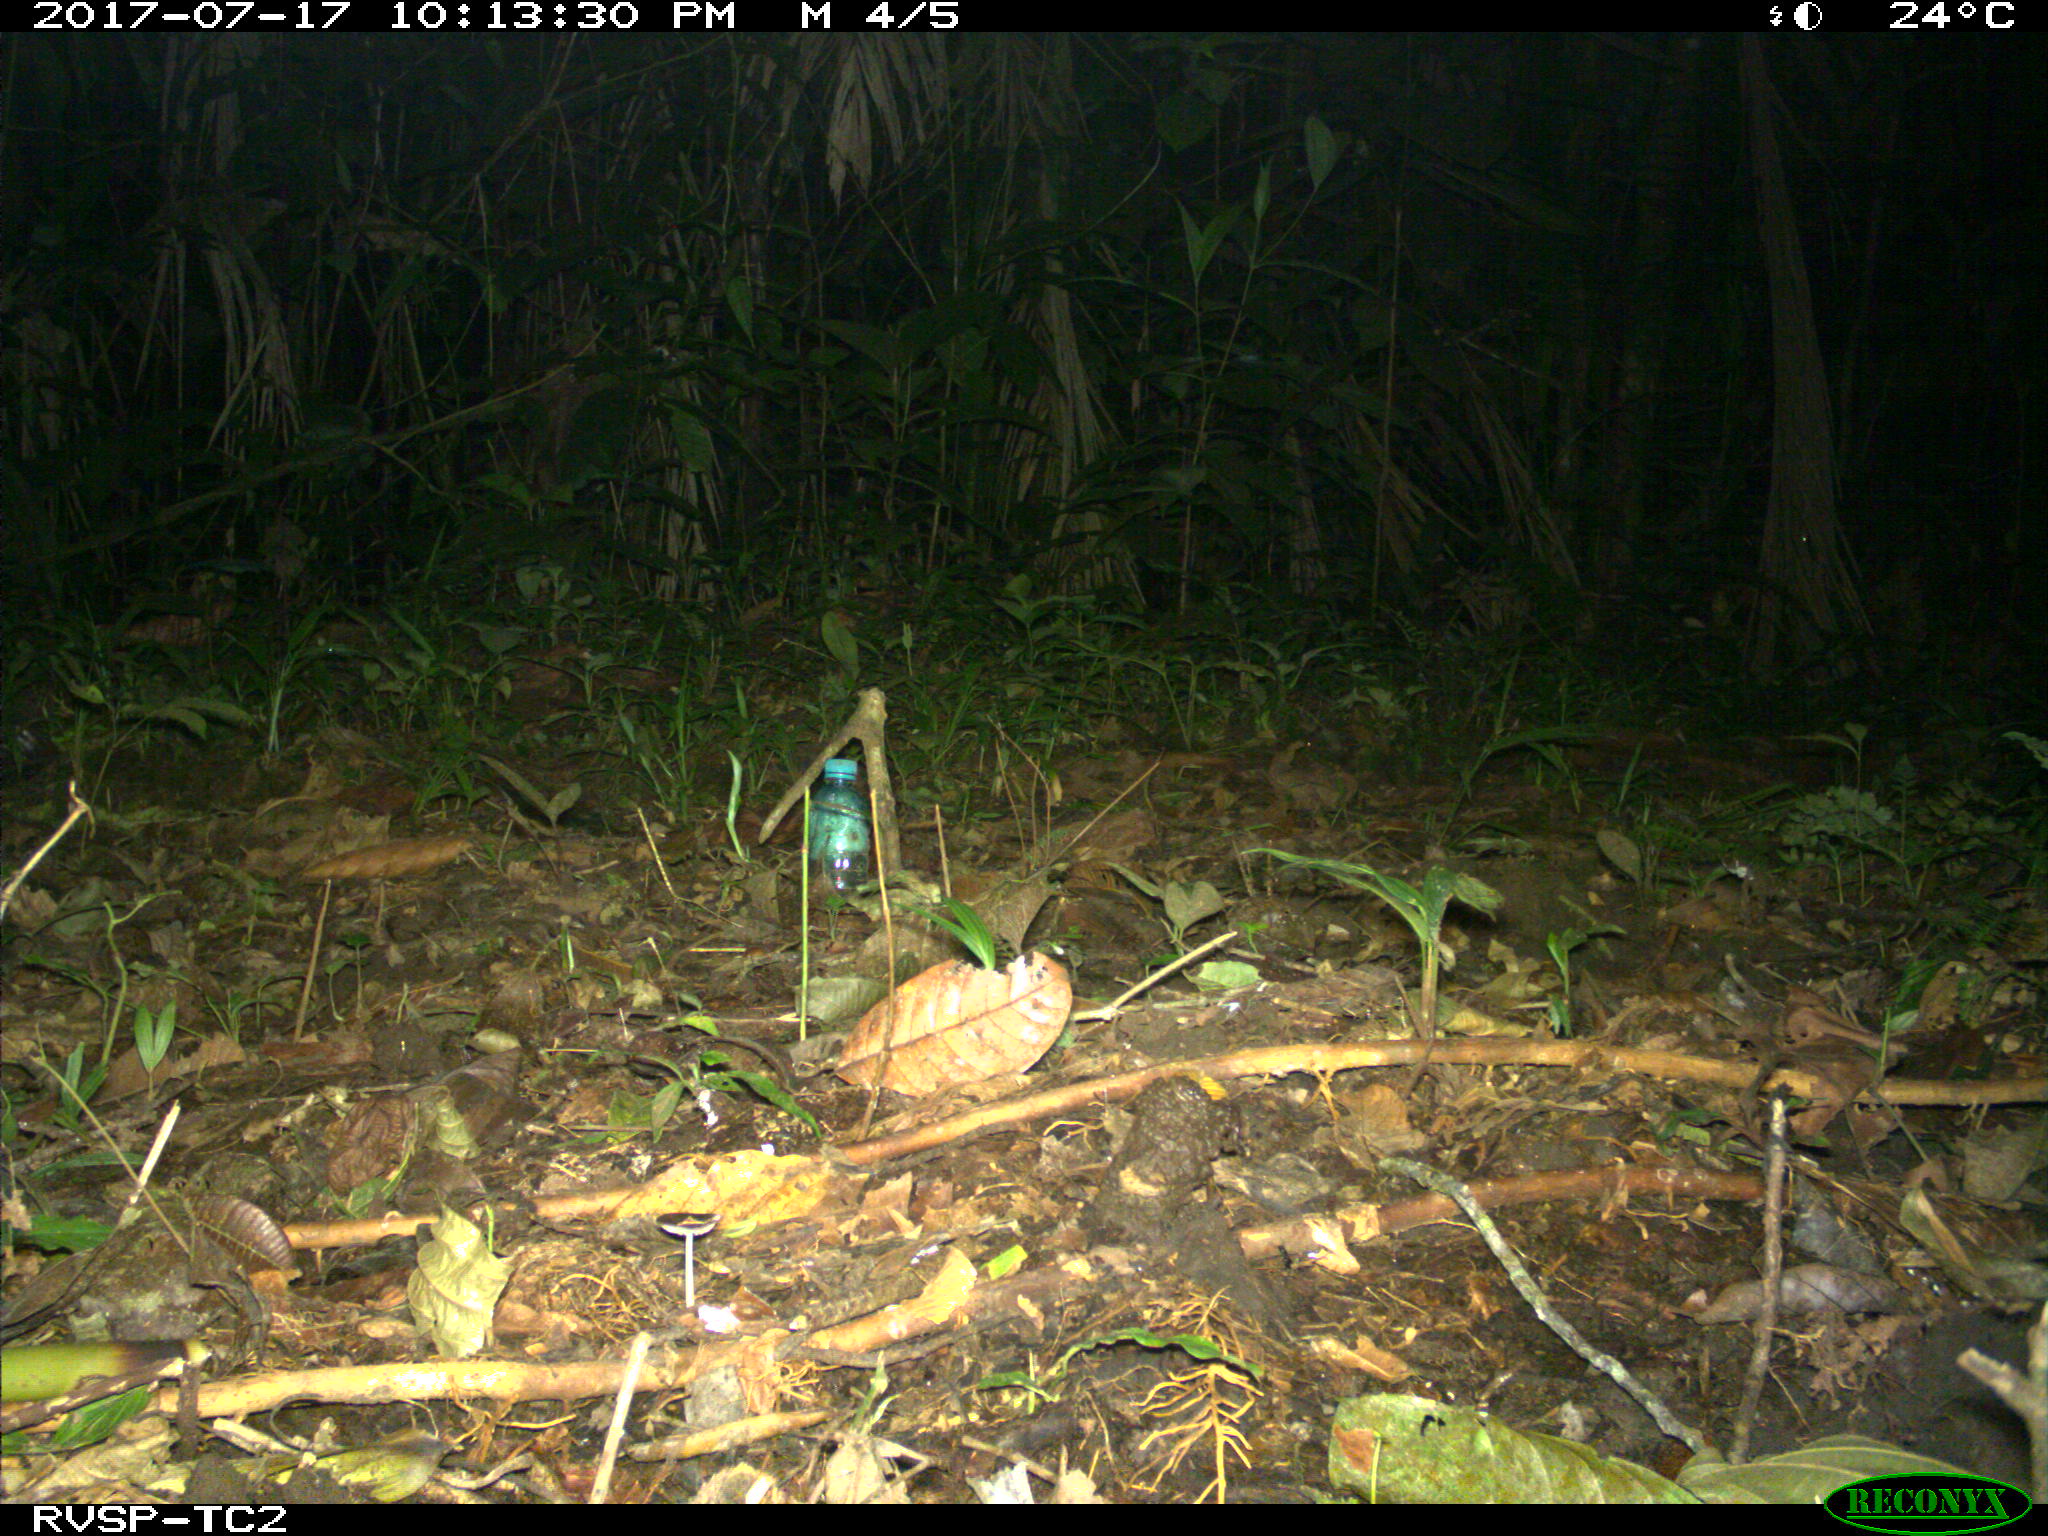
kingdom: Animalia
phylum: Chordata
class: Mammalia
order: Carnivora
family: Felidae
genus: Leopardus
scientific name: Leopardus pardalis
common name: Ocelot
